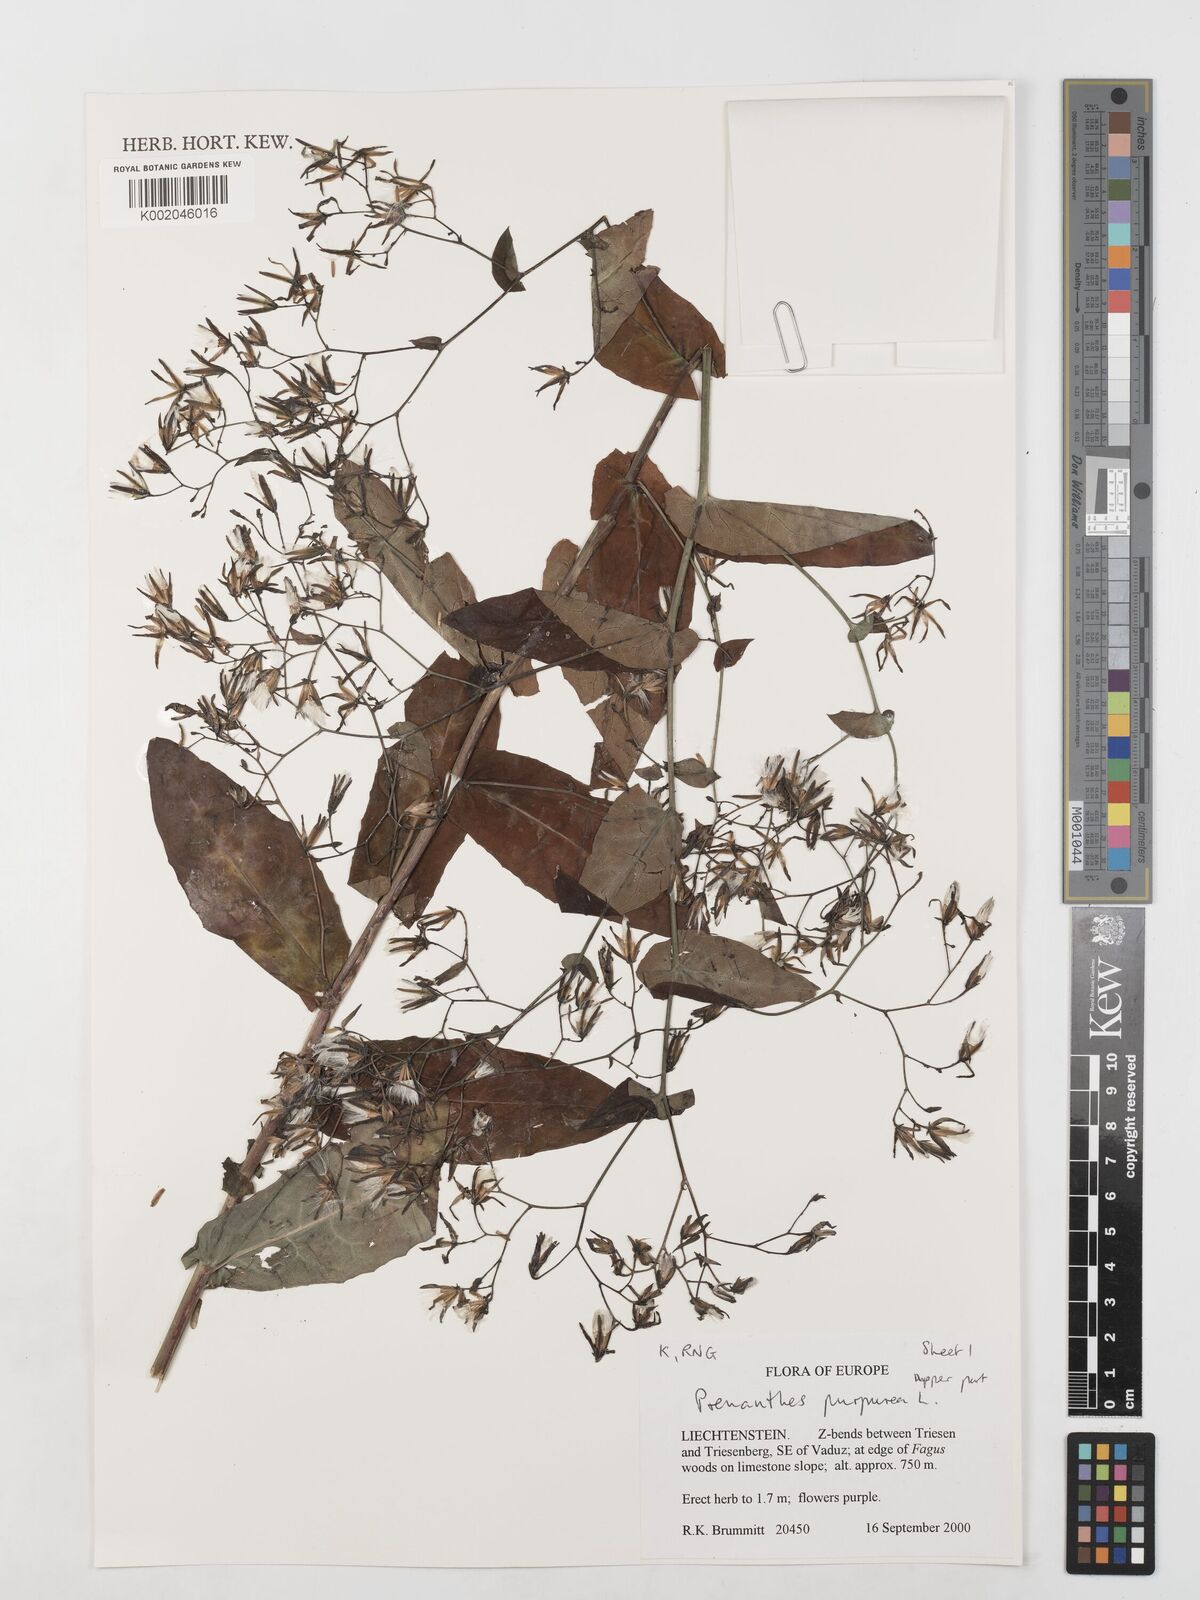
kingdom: Plantae
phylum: Tracheophyta
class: Magnoliopsida
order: Asterales
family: Asteraceae
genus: Prenanthes
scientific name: Prenanthes purpurea
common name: Purple lettuce
